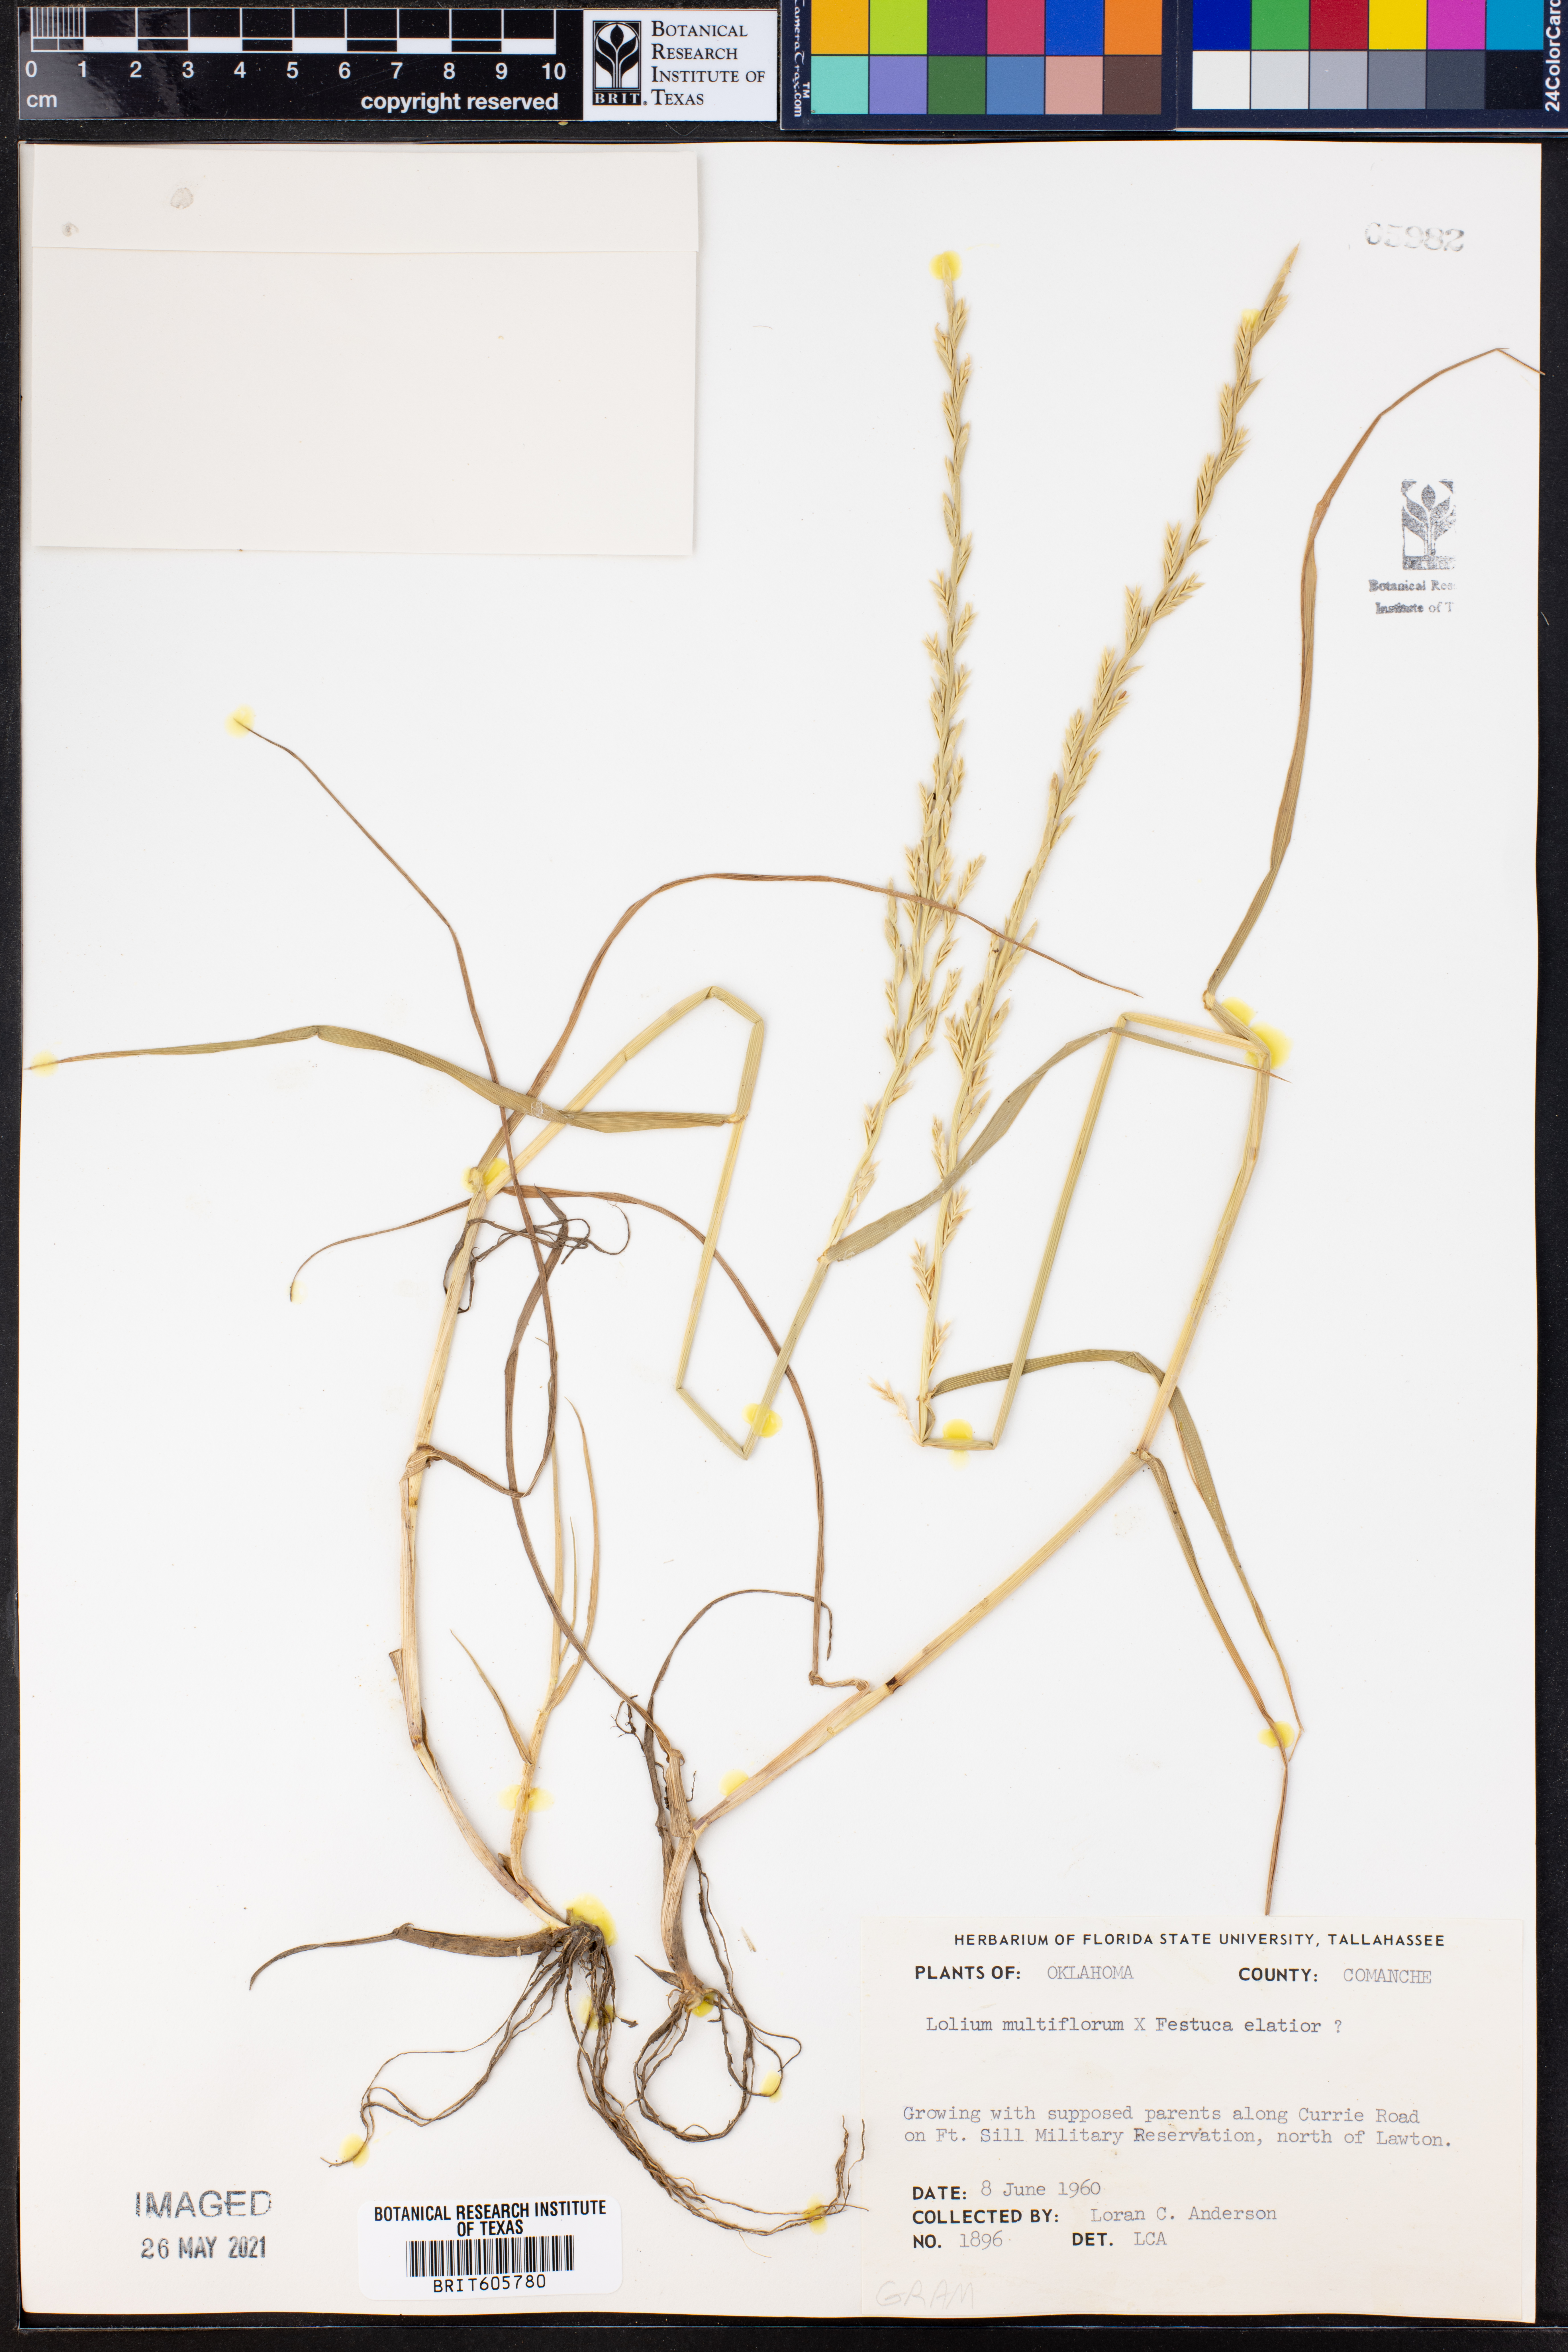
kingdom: Plantae
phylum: Tracheophyta
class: Liliopsida
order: Poales
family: Poaceae
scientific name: Poaceae
